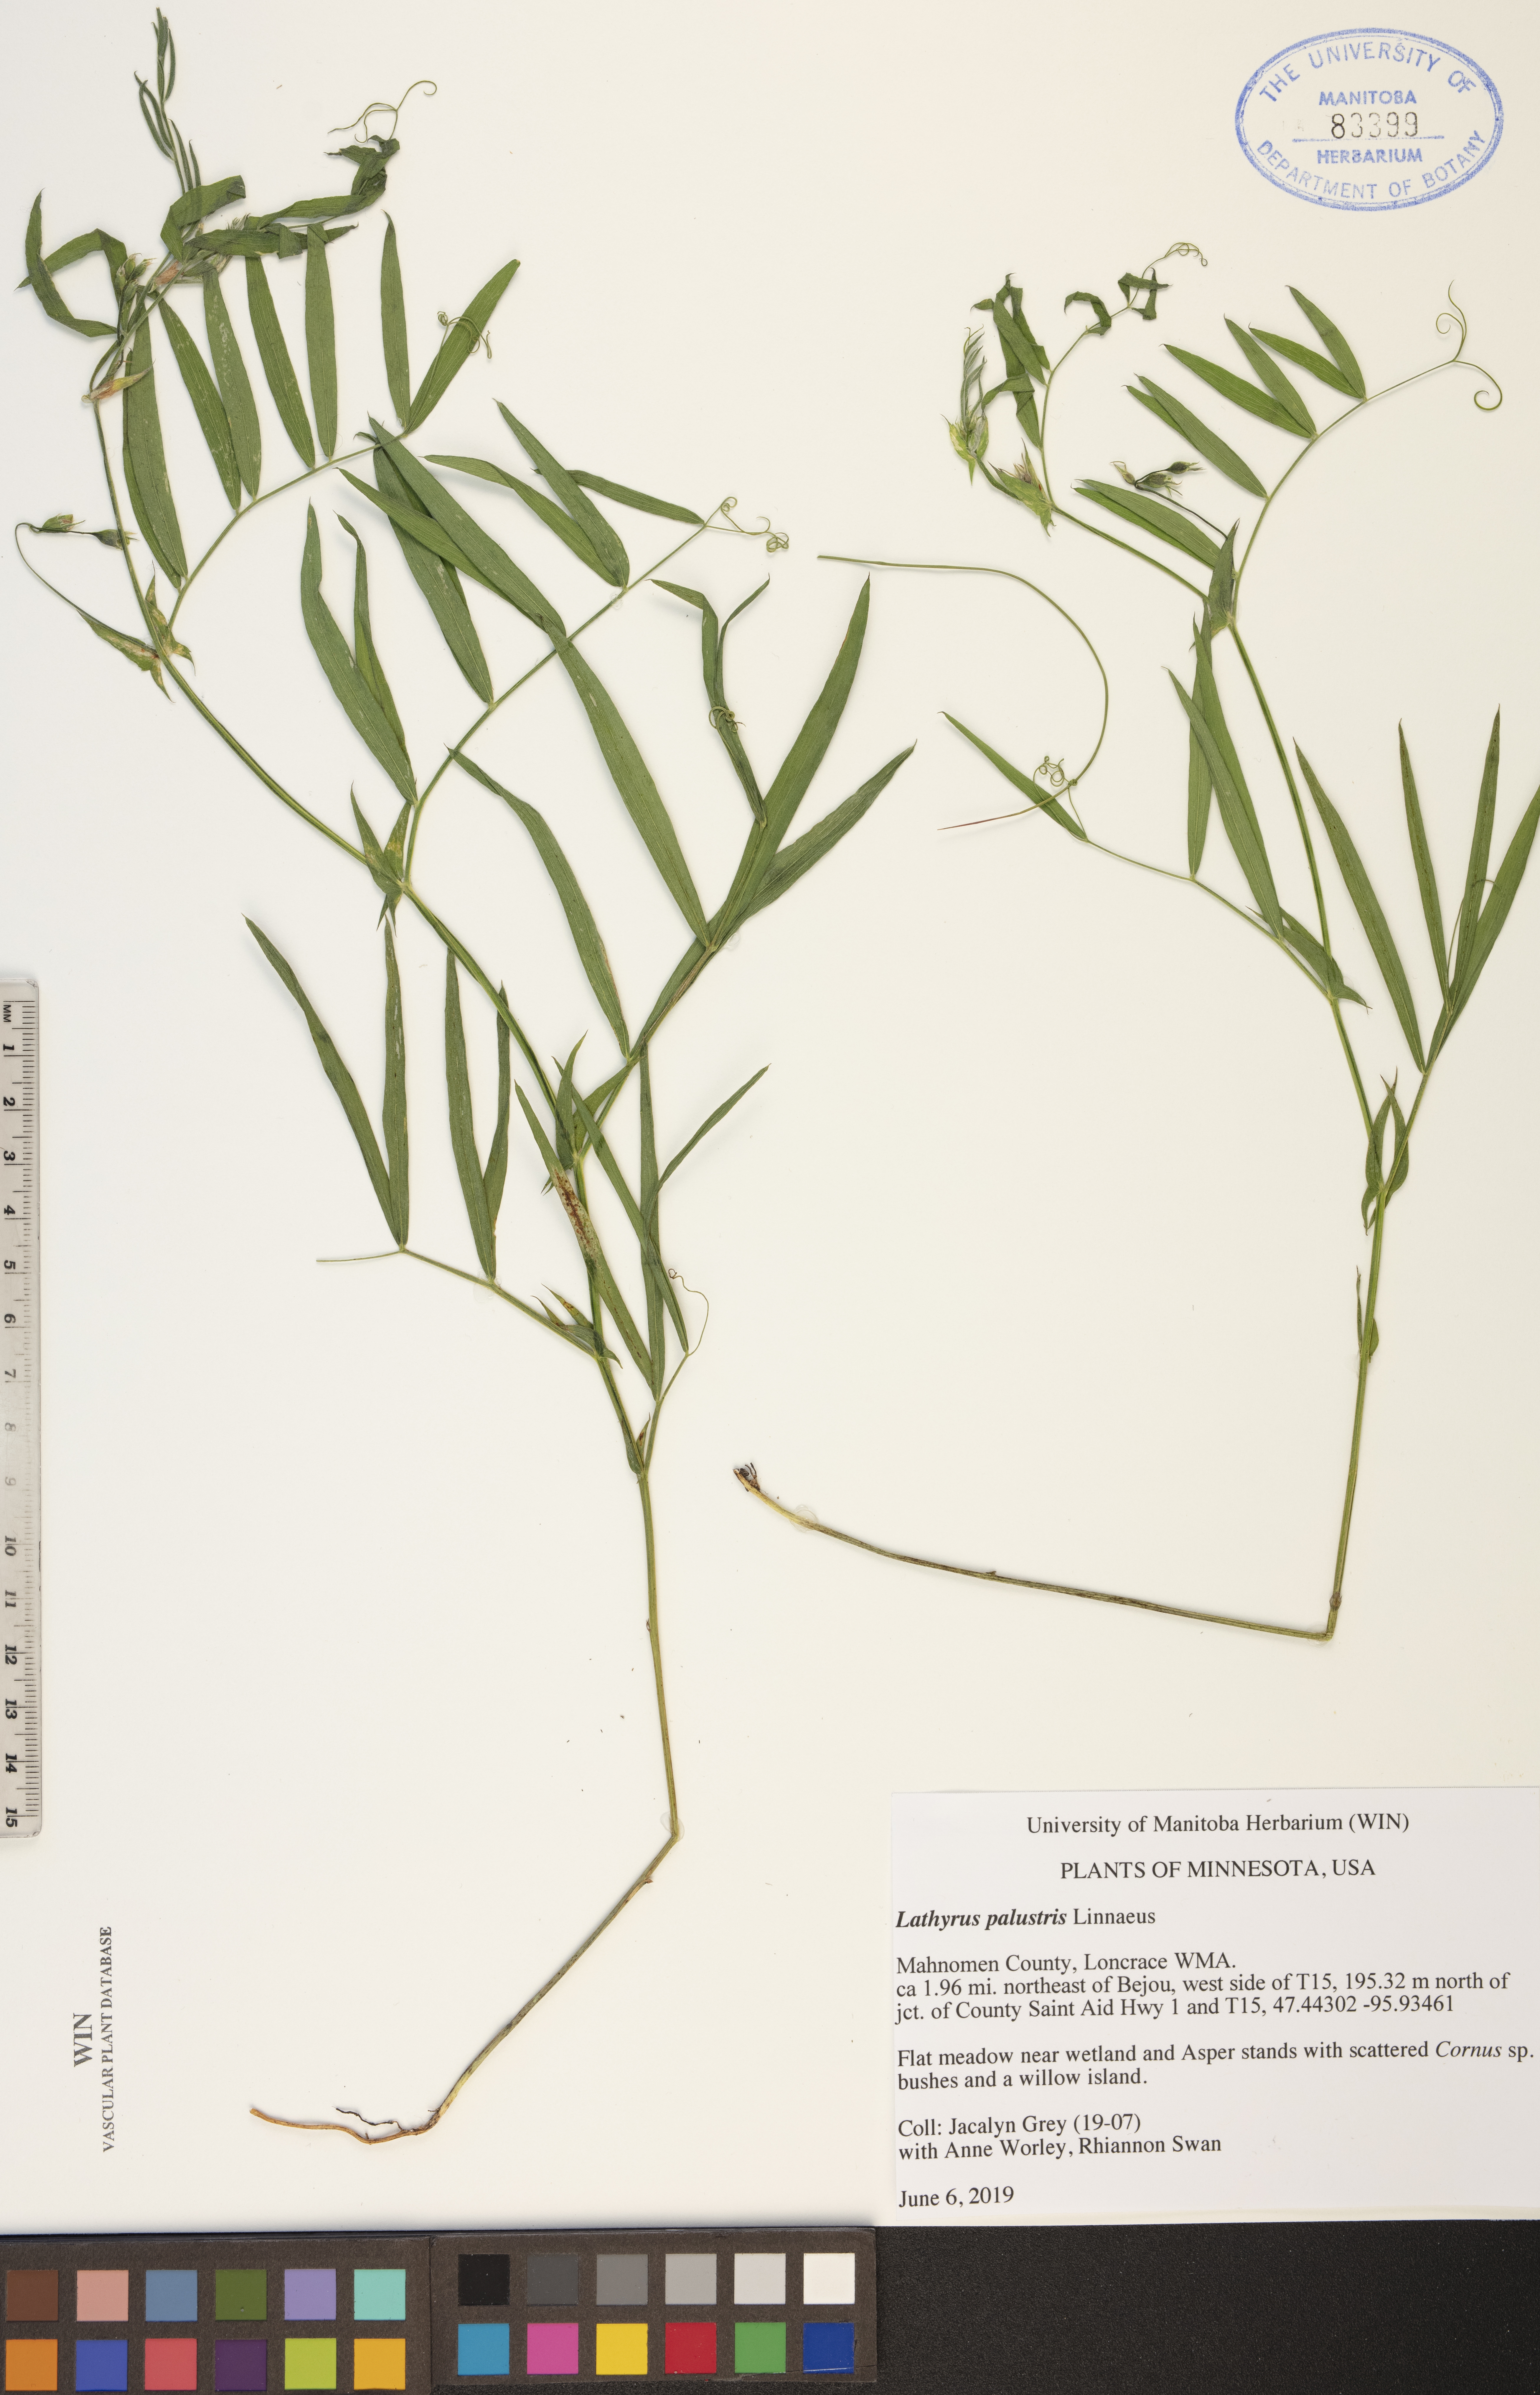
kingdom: Plantae
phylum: Tracheophyta
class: Magnoliopsida
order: Fabales
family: Fabaceae
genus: Lathyrus
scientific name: Lathyrus palustris
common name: Marsh pea
